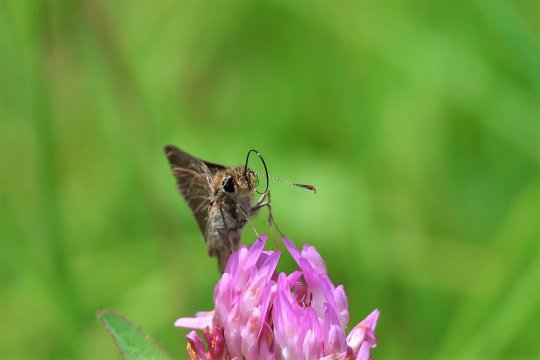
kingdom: Animalia
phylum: Arthropoda
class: Insecta
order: Lepidoptera
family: Hesperiidae
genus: Nastra
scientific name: Nastra lherminier
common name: Swarthy Skipper
